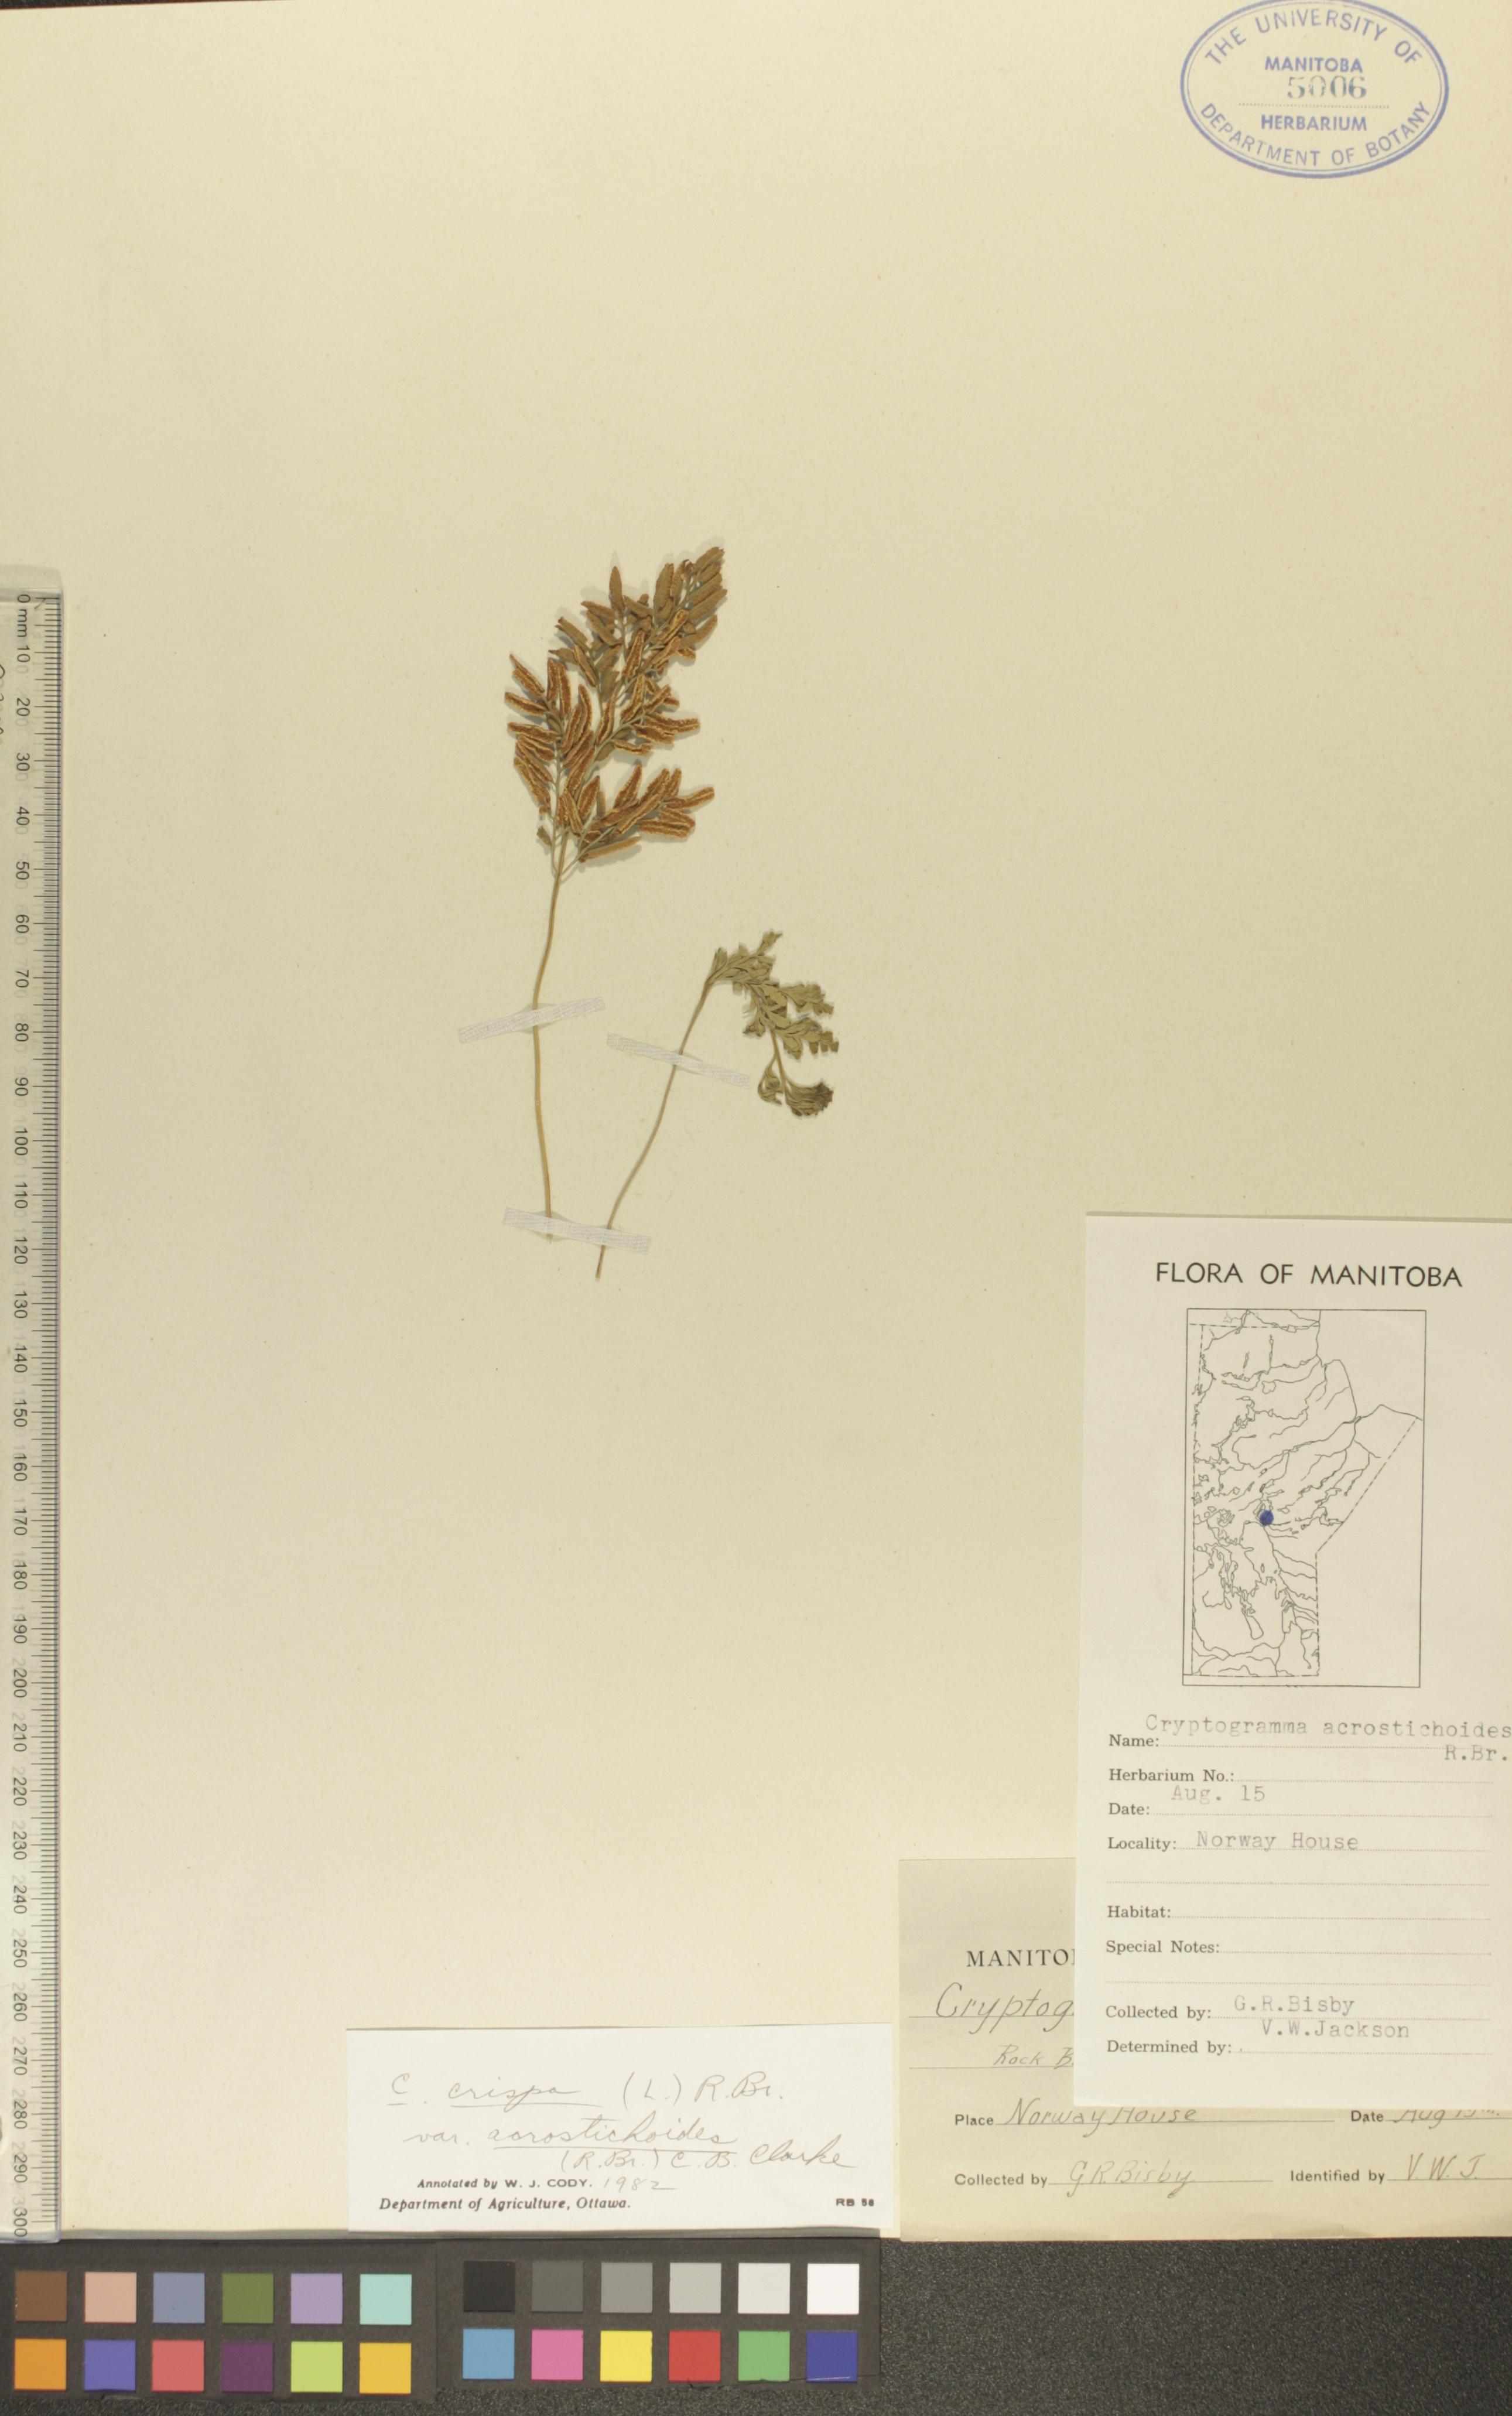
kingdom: Plantae
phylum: Tracheophyta
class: Polypodiopsida
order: Polypodiales
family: Pteridaceae
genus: Cryptogramma
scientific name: Cryptogramma acrostichoides
